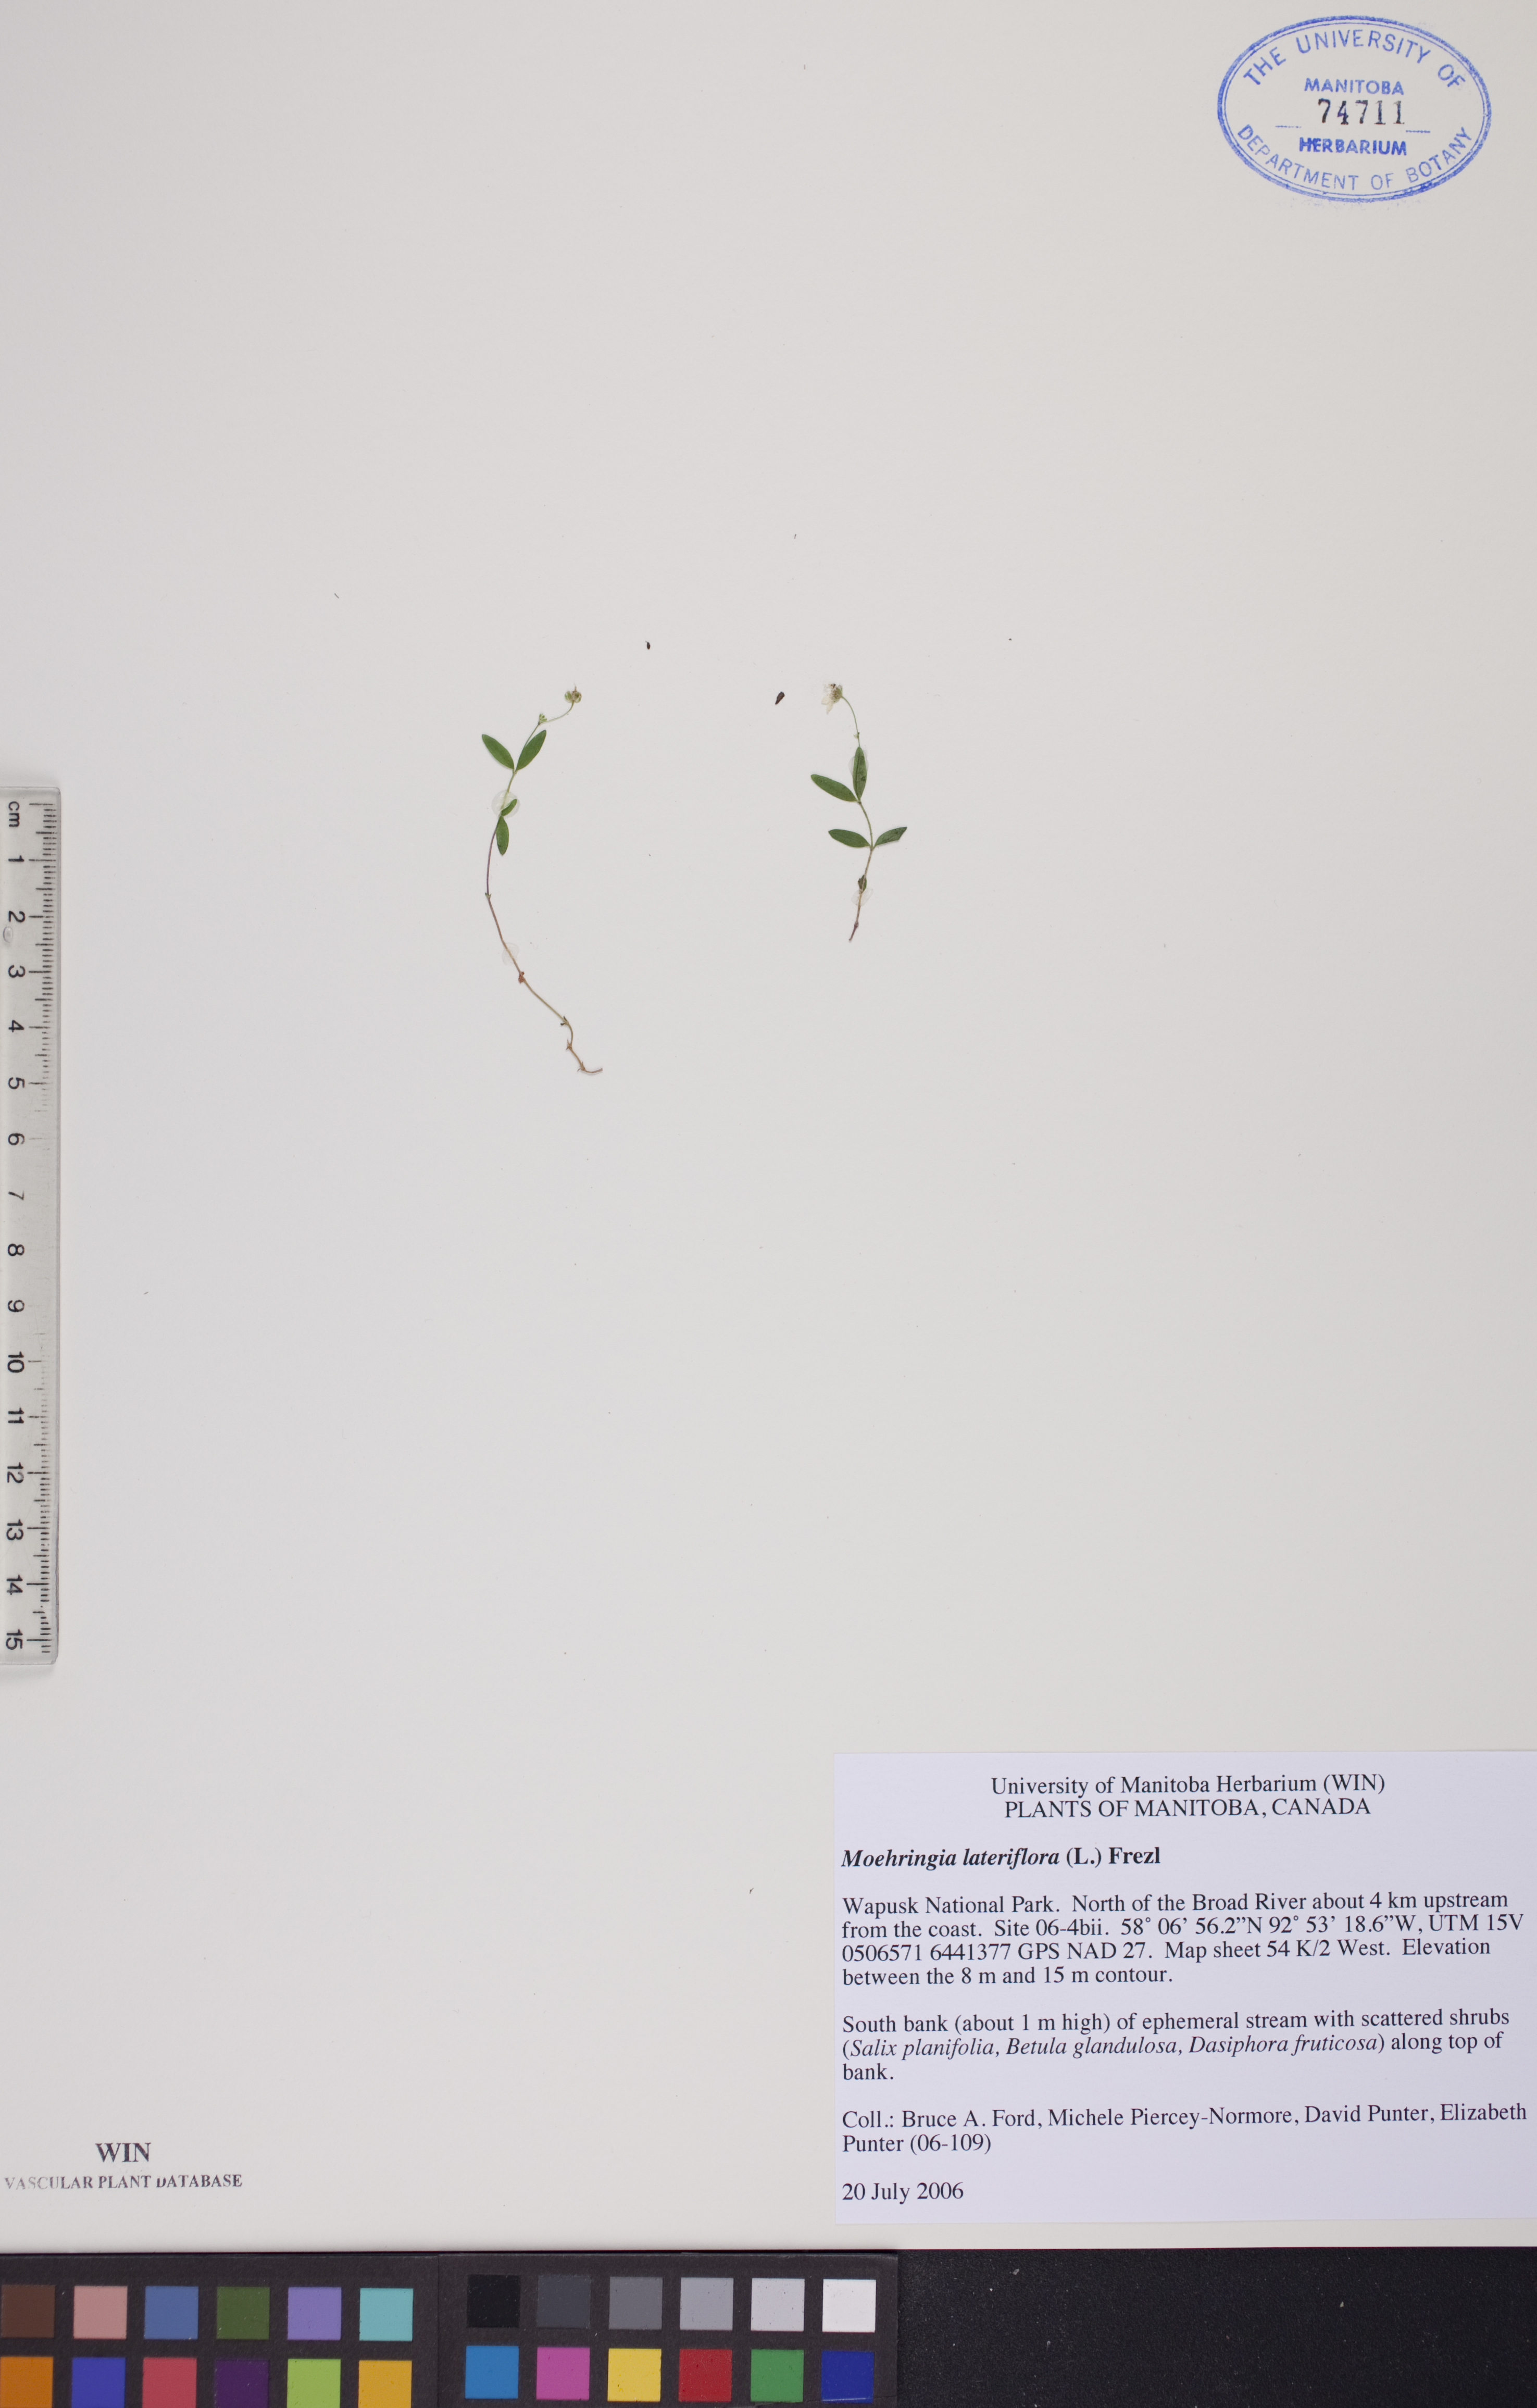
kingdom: Plantae
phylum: Tracheophyta
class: Magnoliopsida
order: Caryophyllales
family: Caryophyllaceae
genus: Moehringia
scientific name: Moehringia lateriflora
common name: Blunt-leaved sandwort
